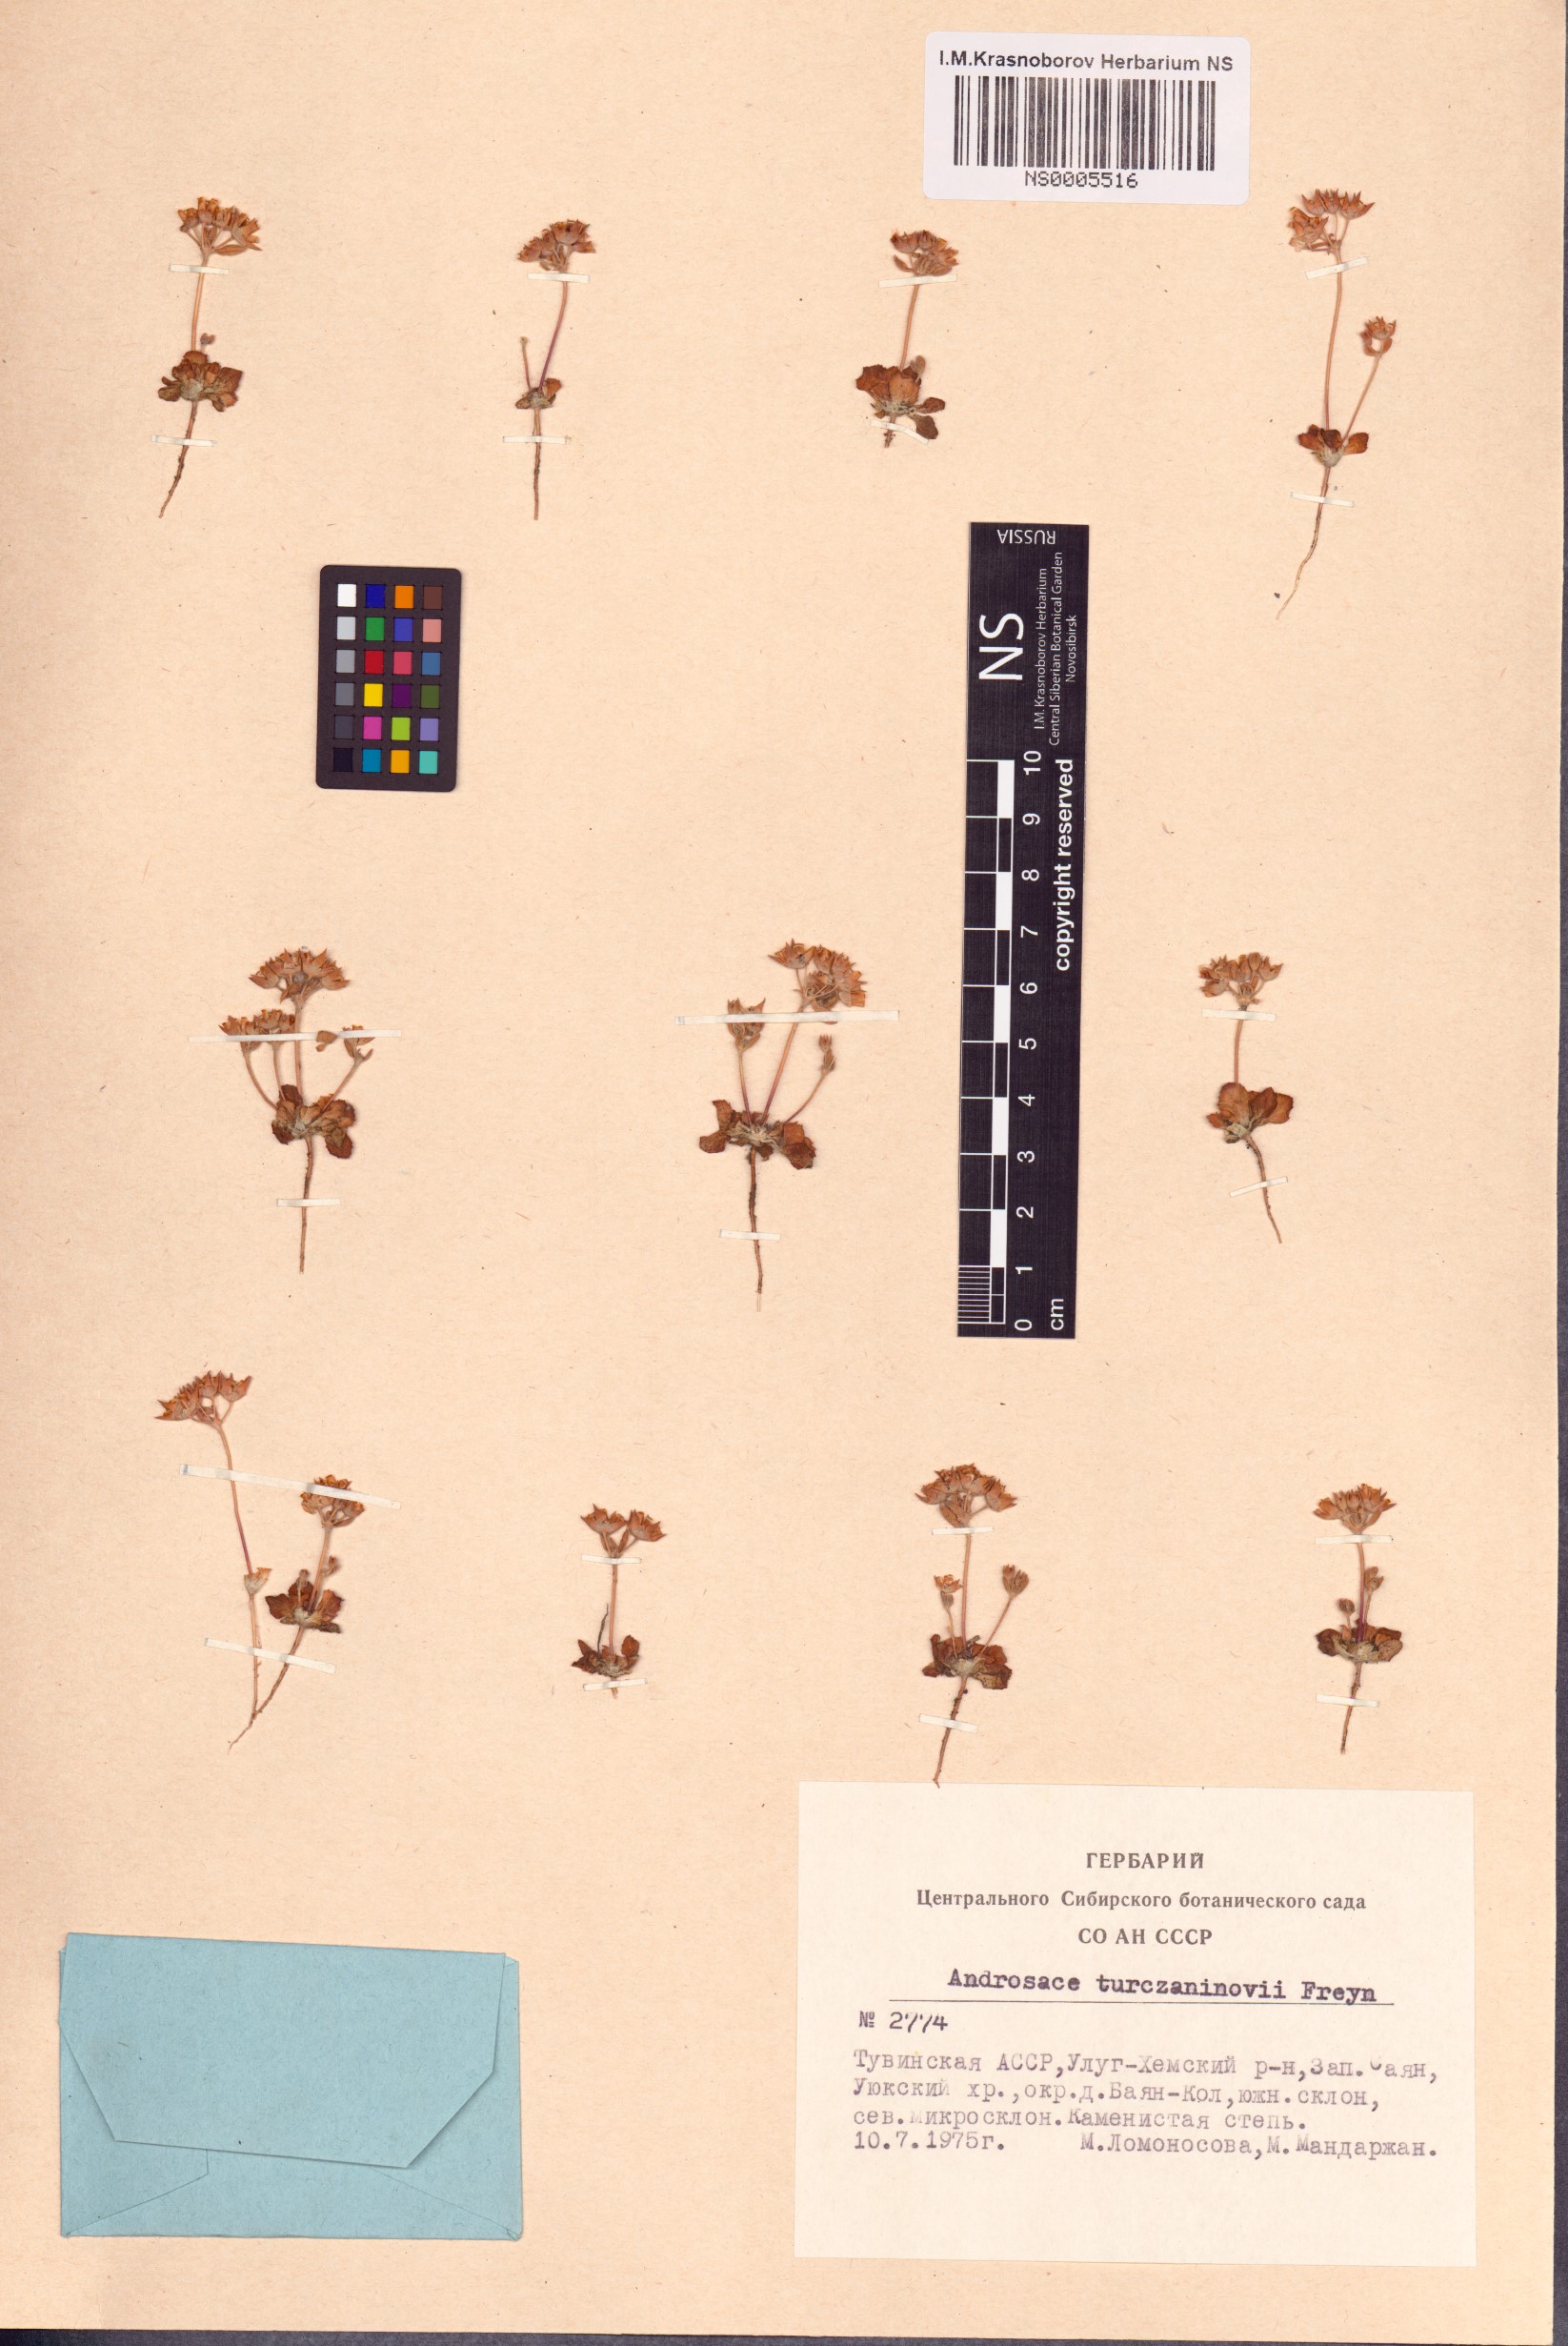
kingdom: Plantae
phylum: Tracheophyta
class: Magnoliopsida
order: Ericales
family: Primulaceae
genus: Androsace
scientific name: Androsace maxima
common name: Annual androsace
